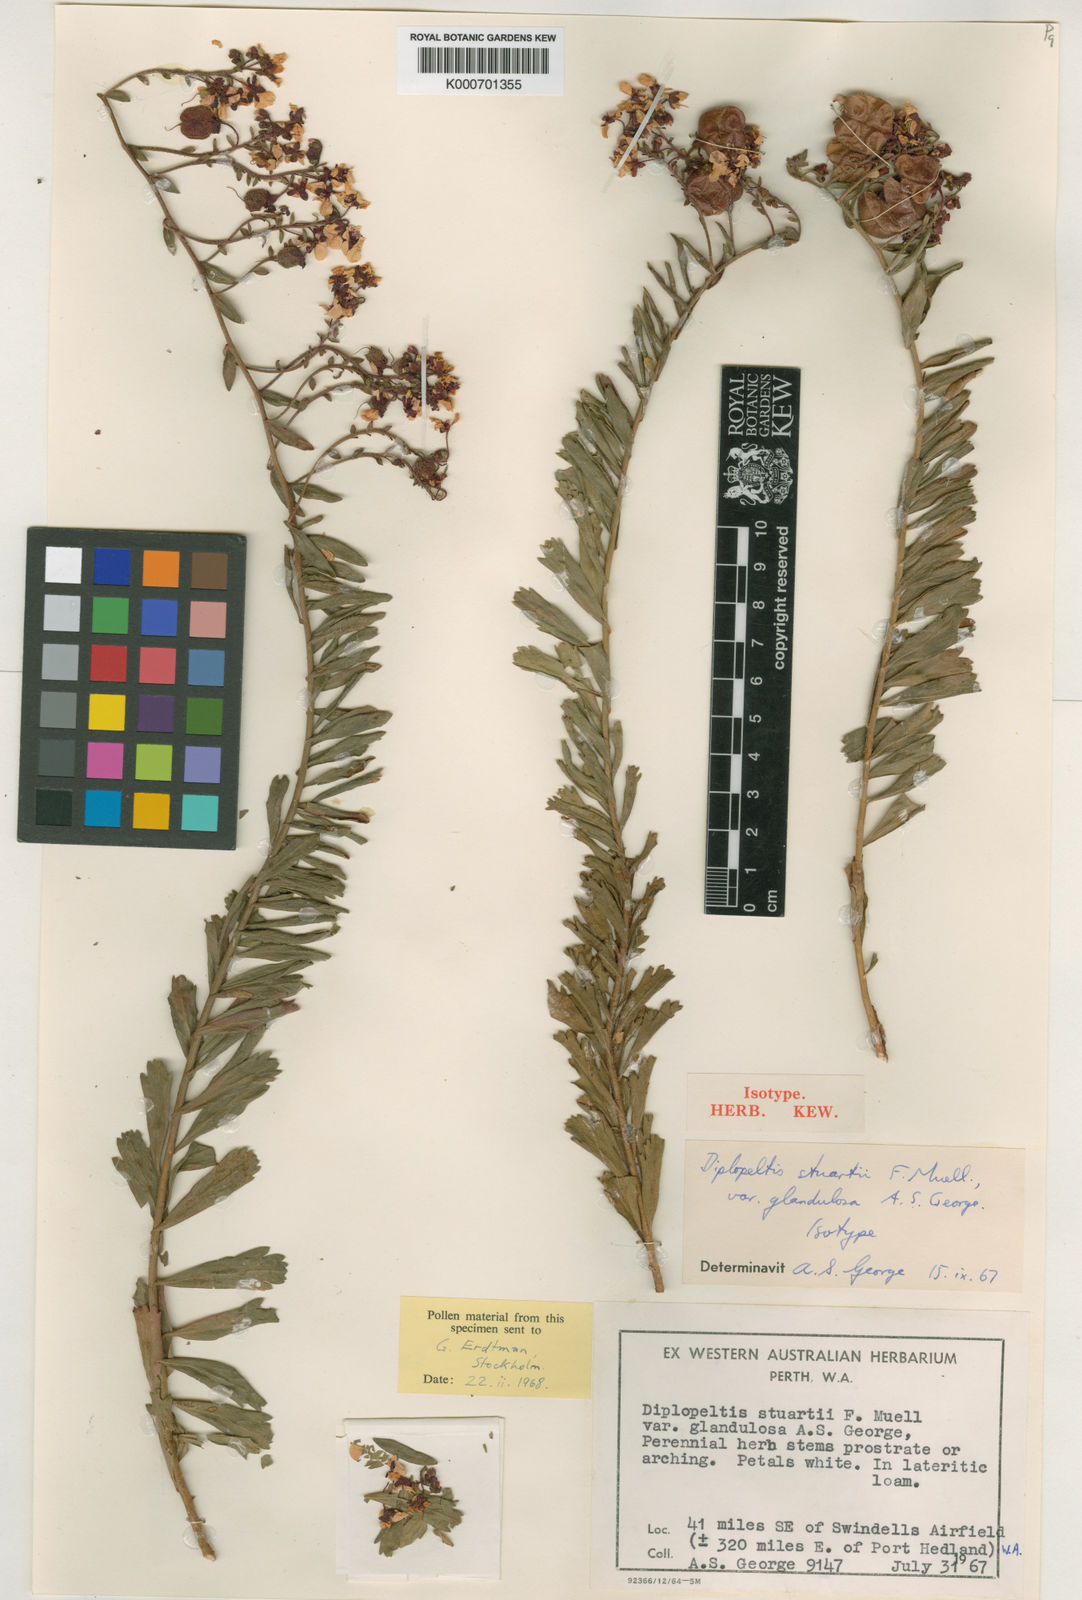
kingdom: Plantae
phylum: Tracheophyta
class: Magnoliopsida
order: Sapindales
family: Sapindaceae
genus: Diplopeltis
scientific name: Diplopeltis stuartii
